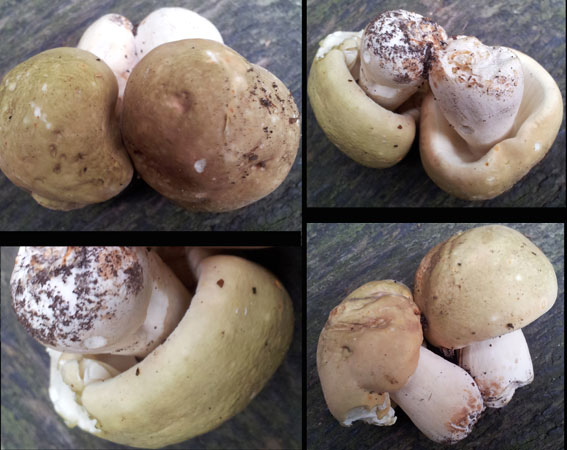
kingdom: Fungi
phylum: Basidiomycota
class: Agaricomycetes
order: Russulales
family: Russulaceae
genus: Russula
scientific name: Russula violeipes
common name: ferskengul skørhat
